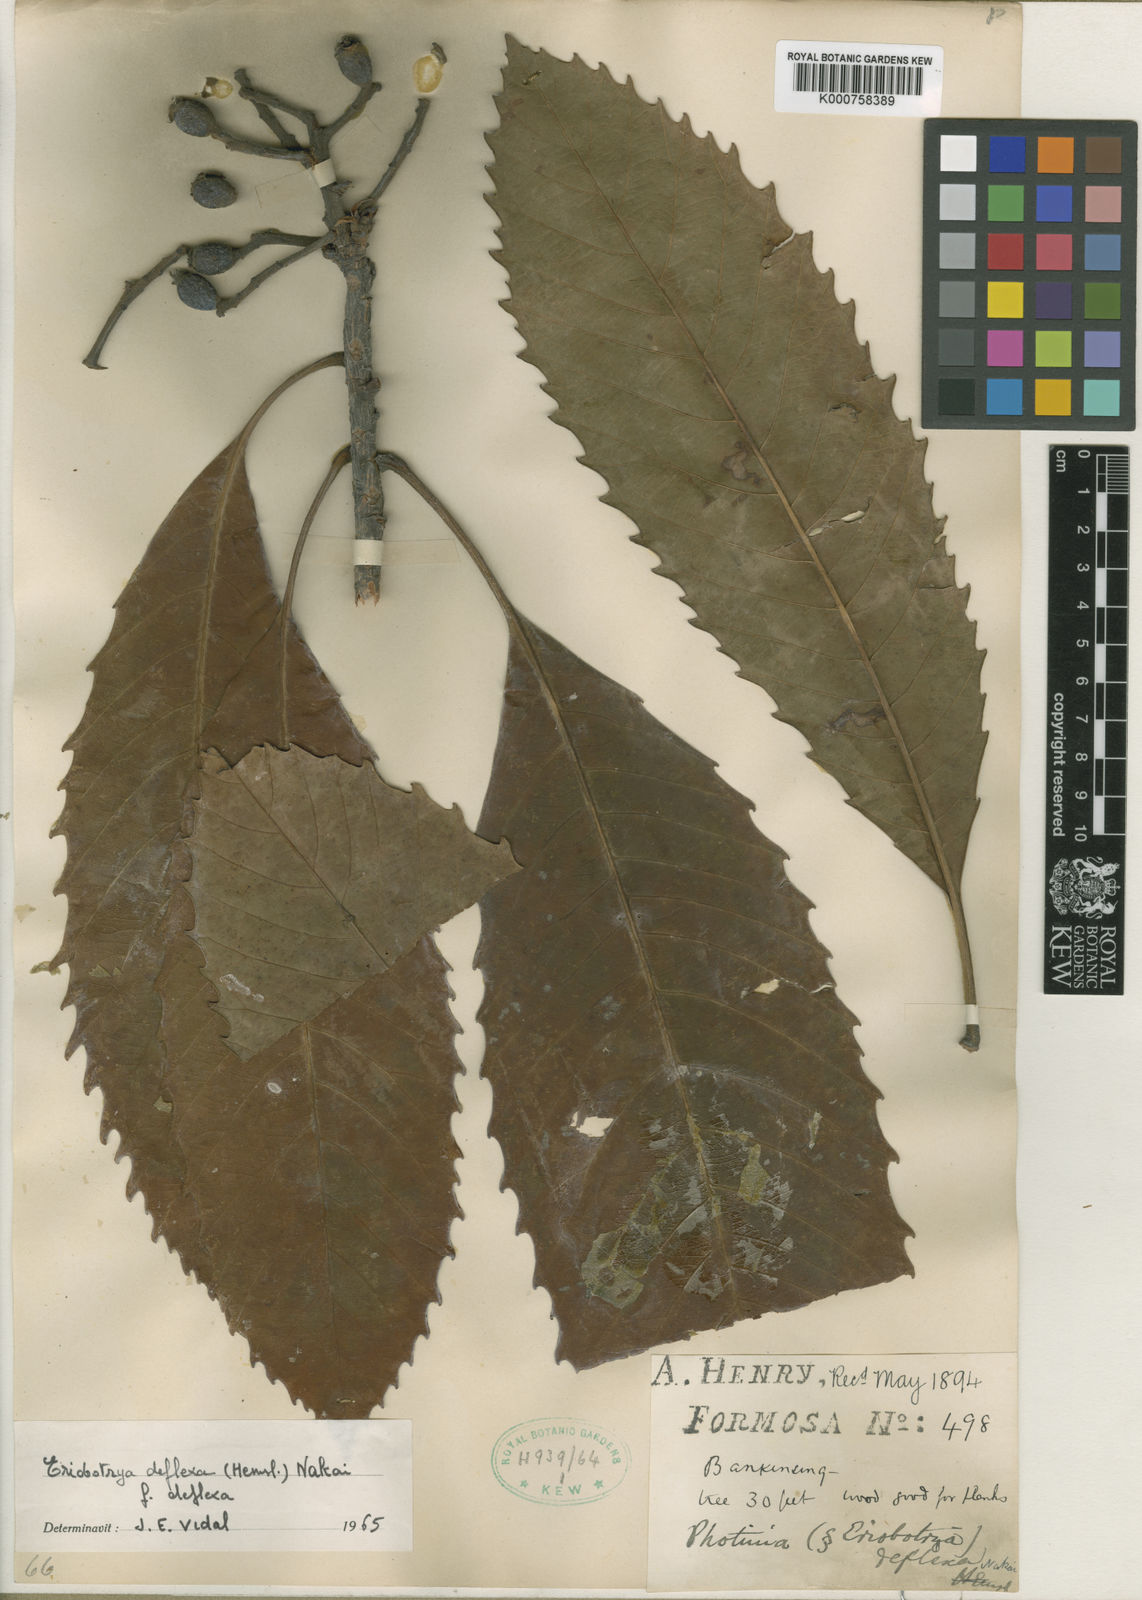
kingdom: Plantae
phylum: Tracheophyta
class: Magnoliopsida
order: Rosales
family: Rosaceae
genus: Rhaphiolepis
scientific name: Rhaphiolepis deflexa
